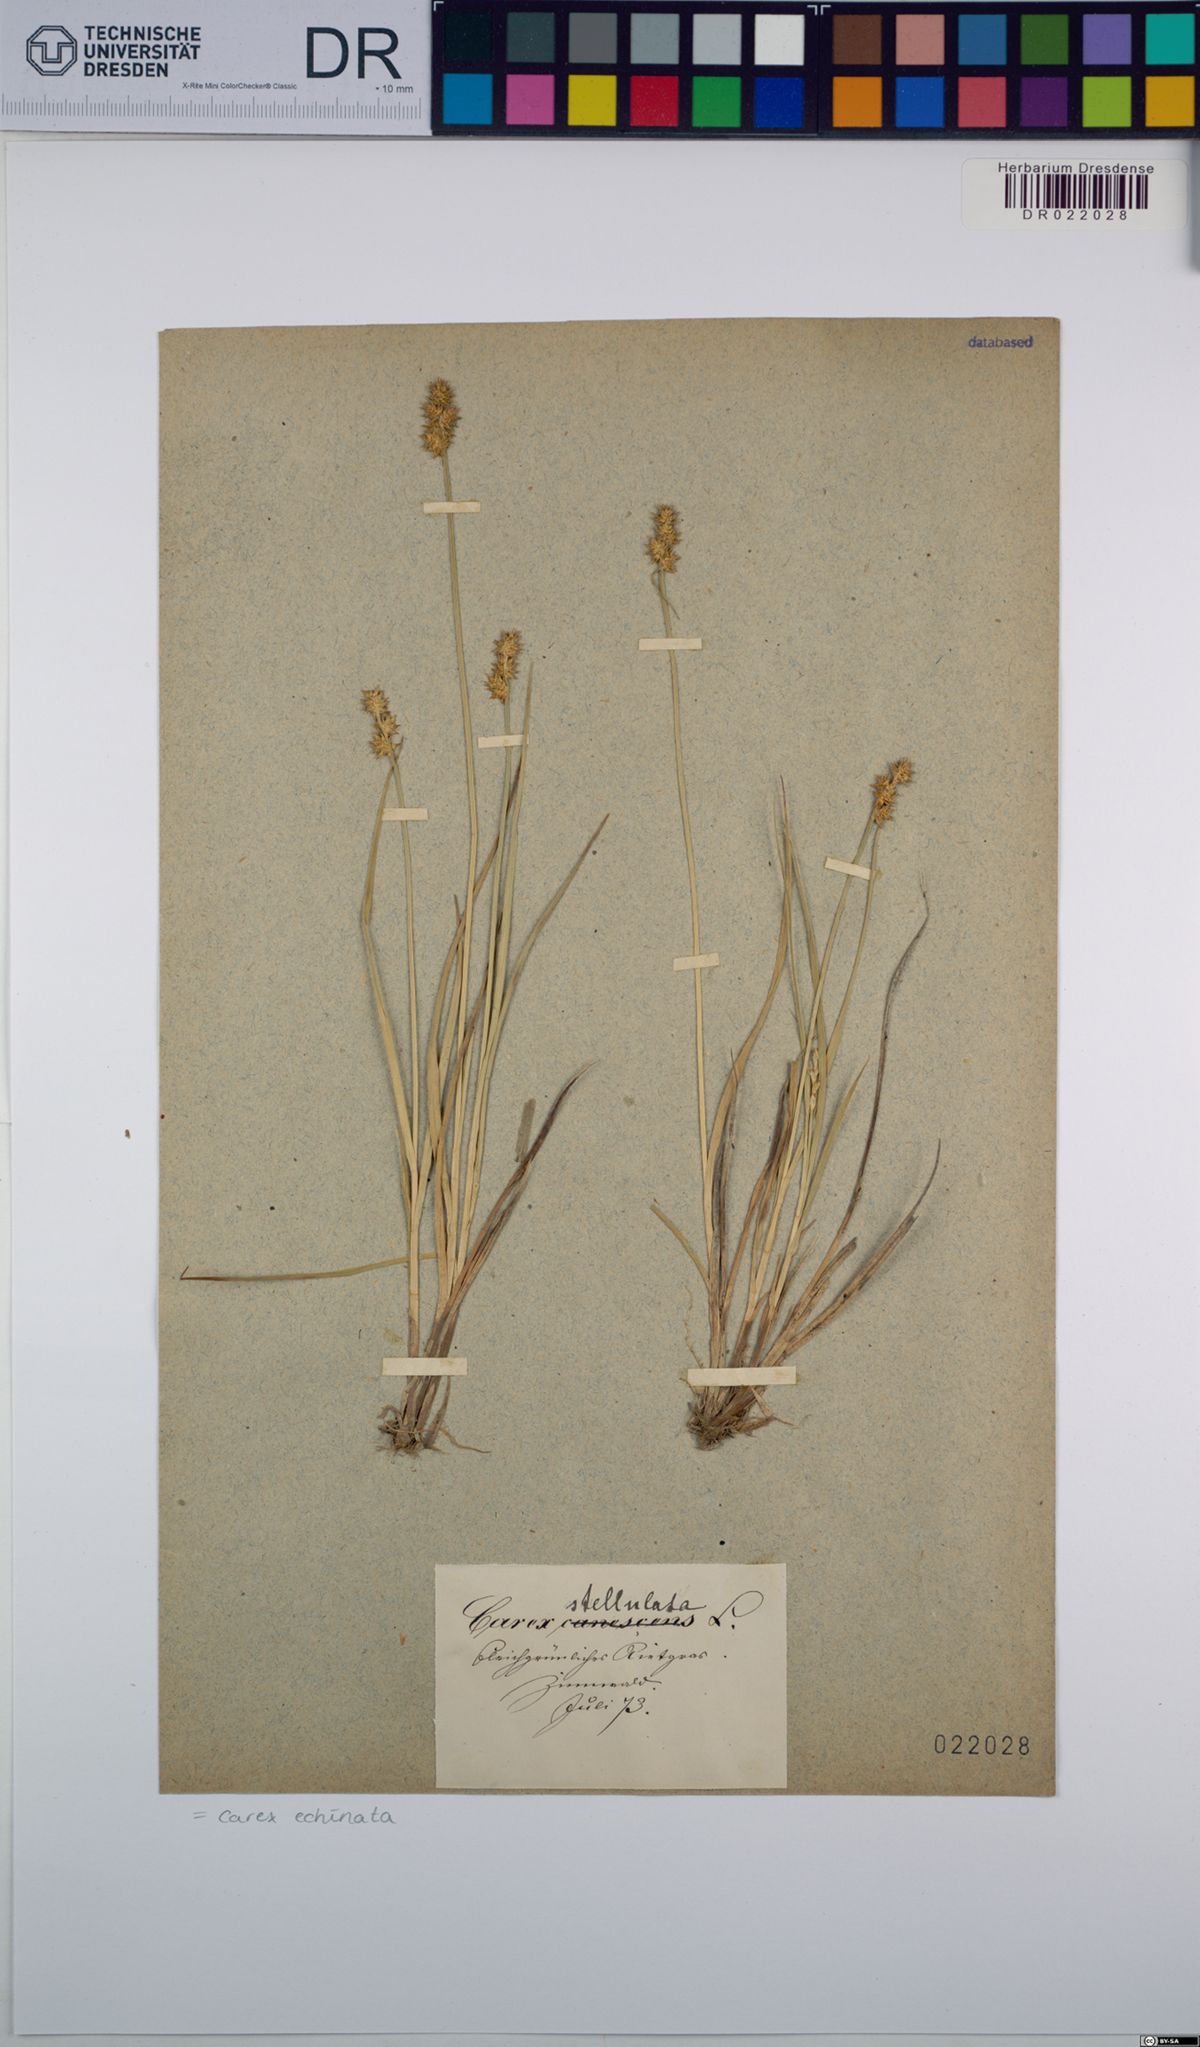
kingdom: Plantae
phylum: Tracheophyta
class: Liliopsida
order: Poales
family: Cyperaceae
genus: Carex
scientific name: Carex echinata
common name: Star sedge
